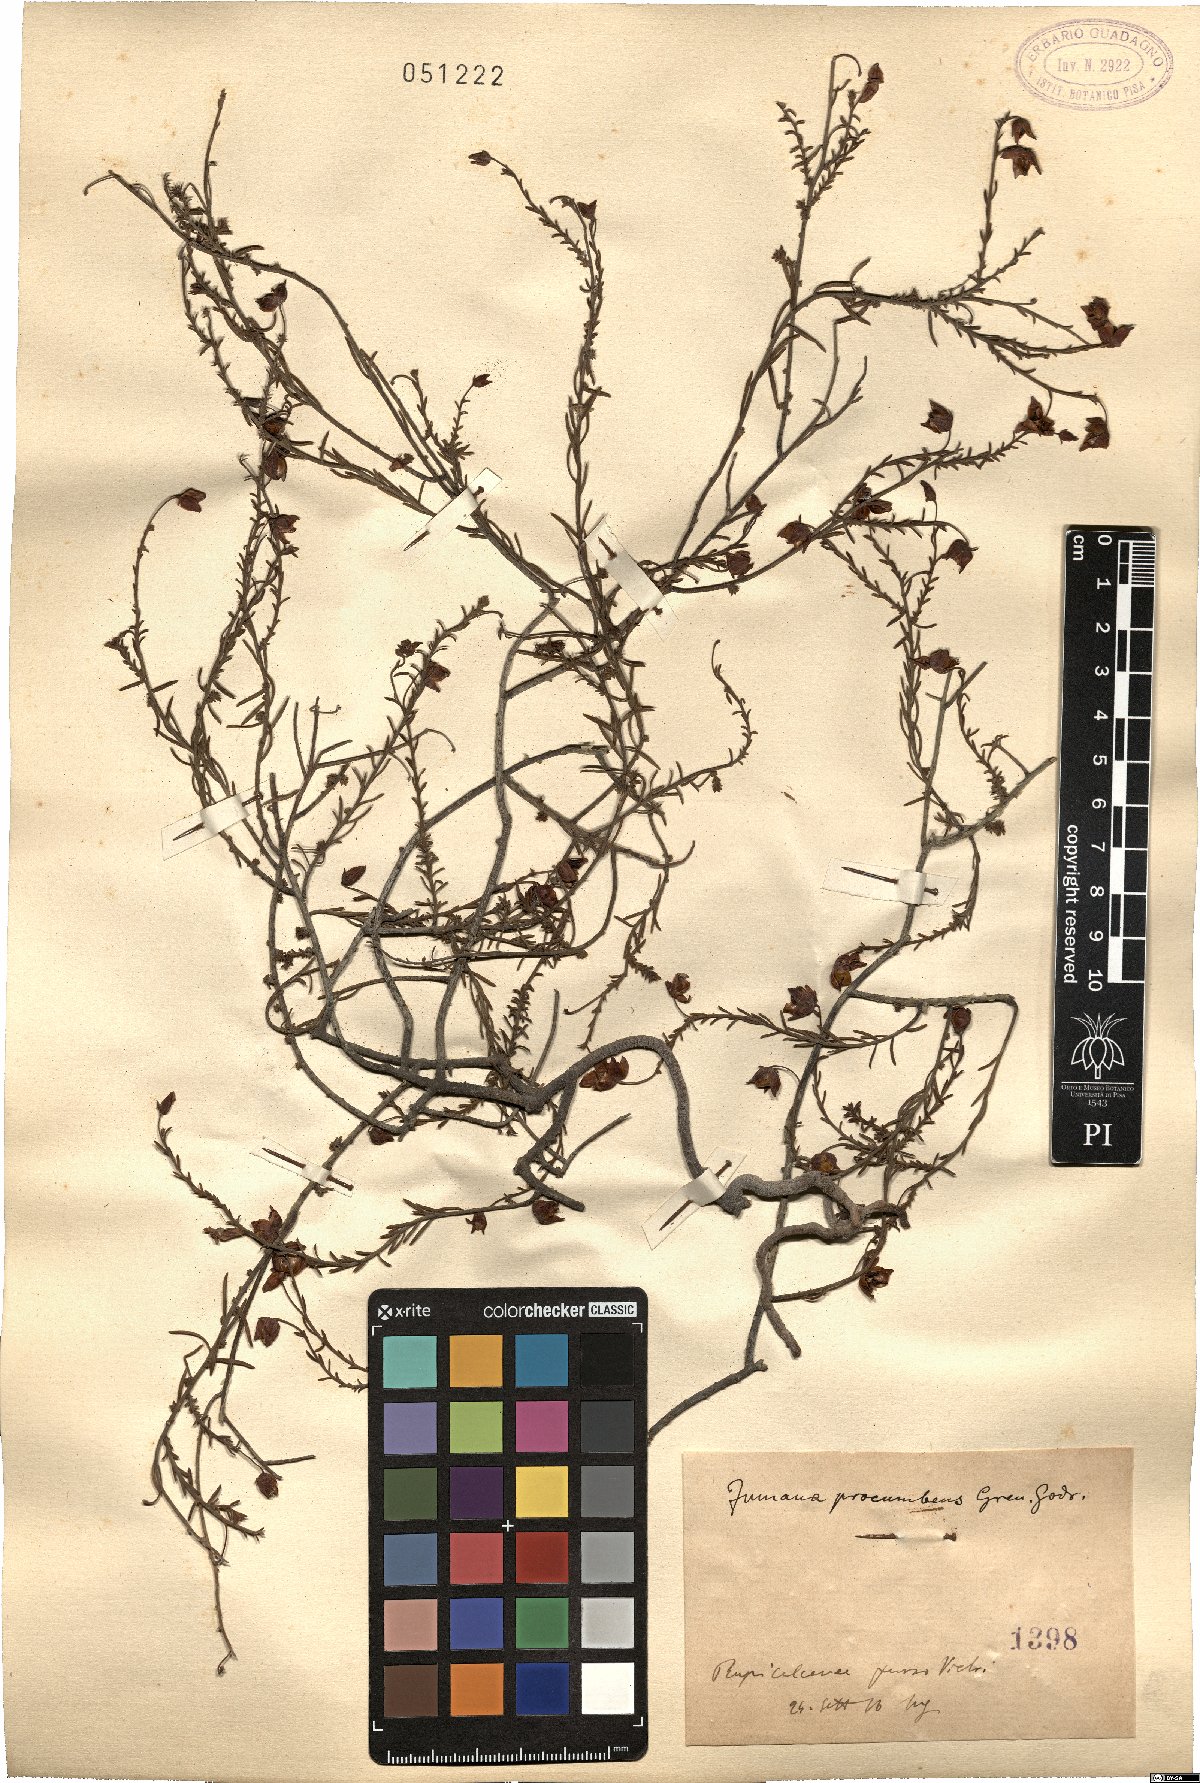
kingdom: Plantae
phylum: Tracheophyta
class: Magnoliopsida
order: Malvales
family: Cistaceae
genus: Fumana
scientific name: Fumana procumbens
